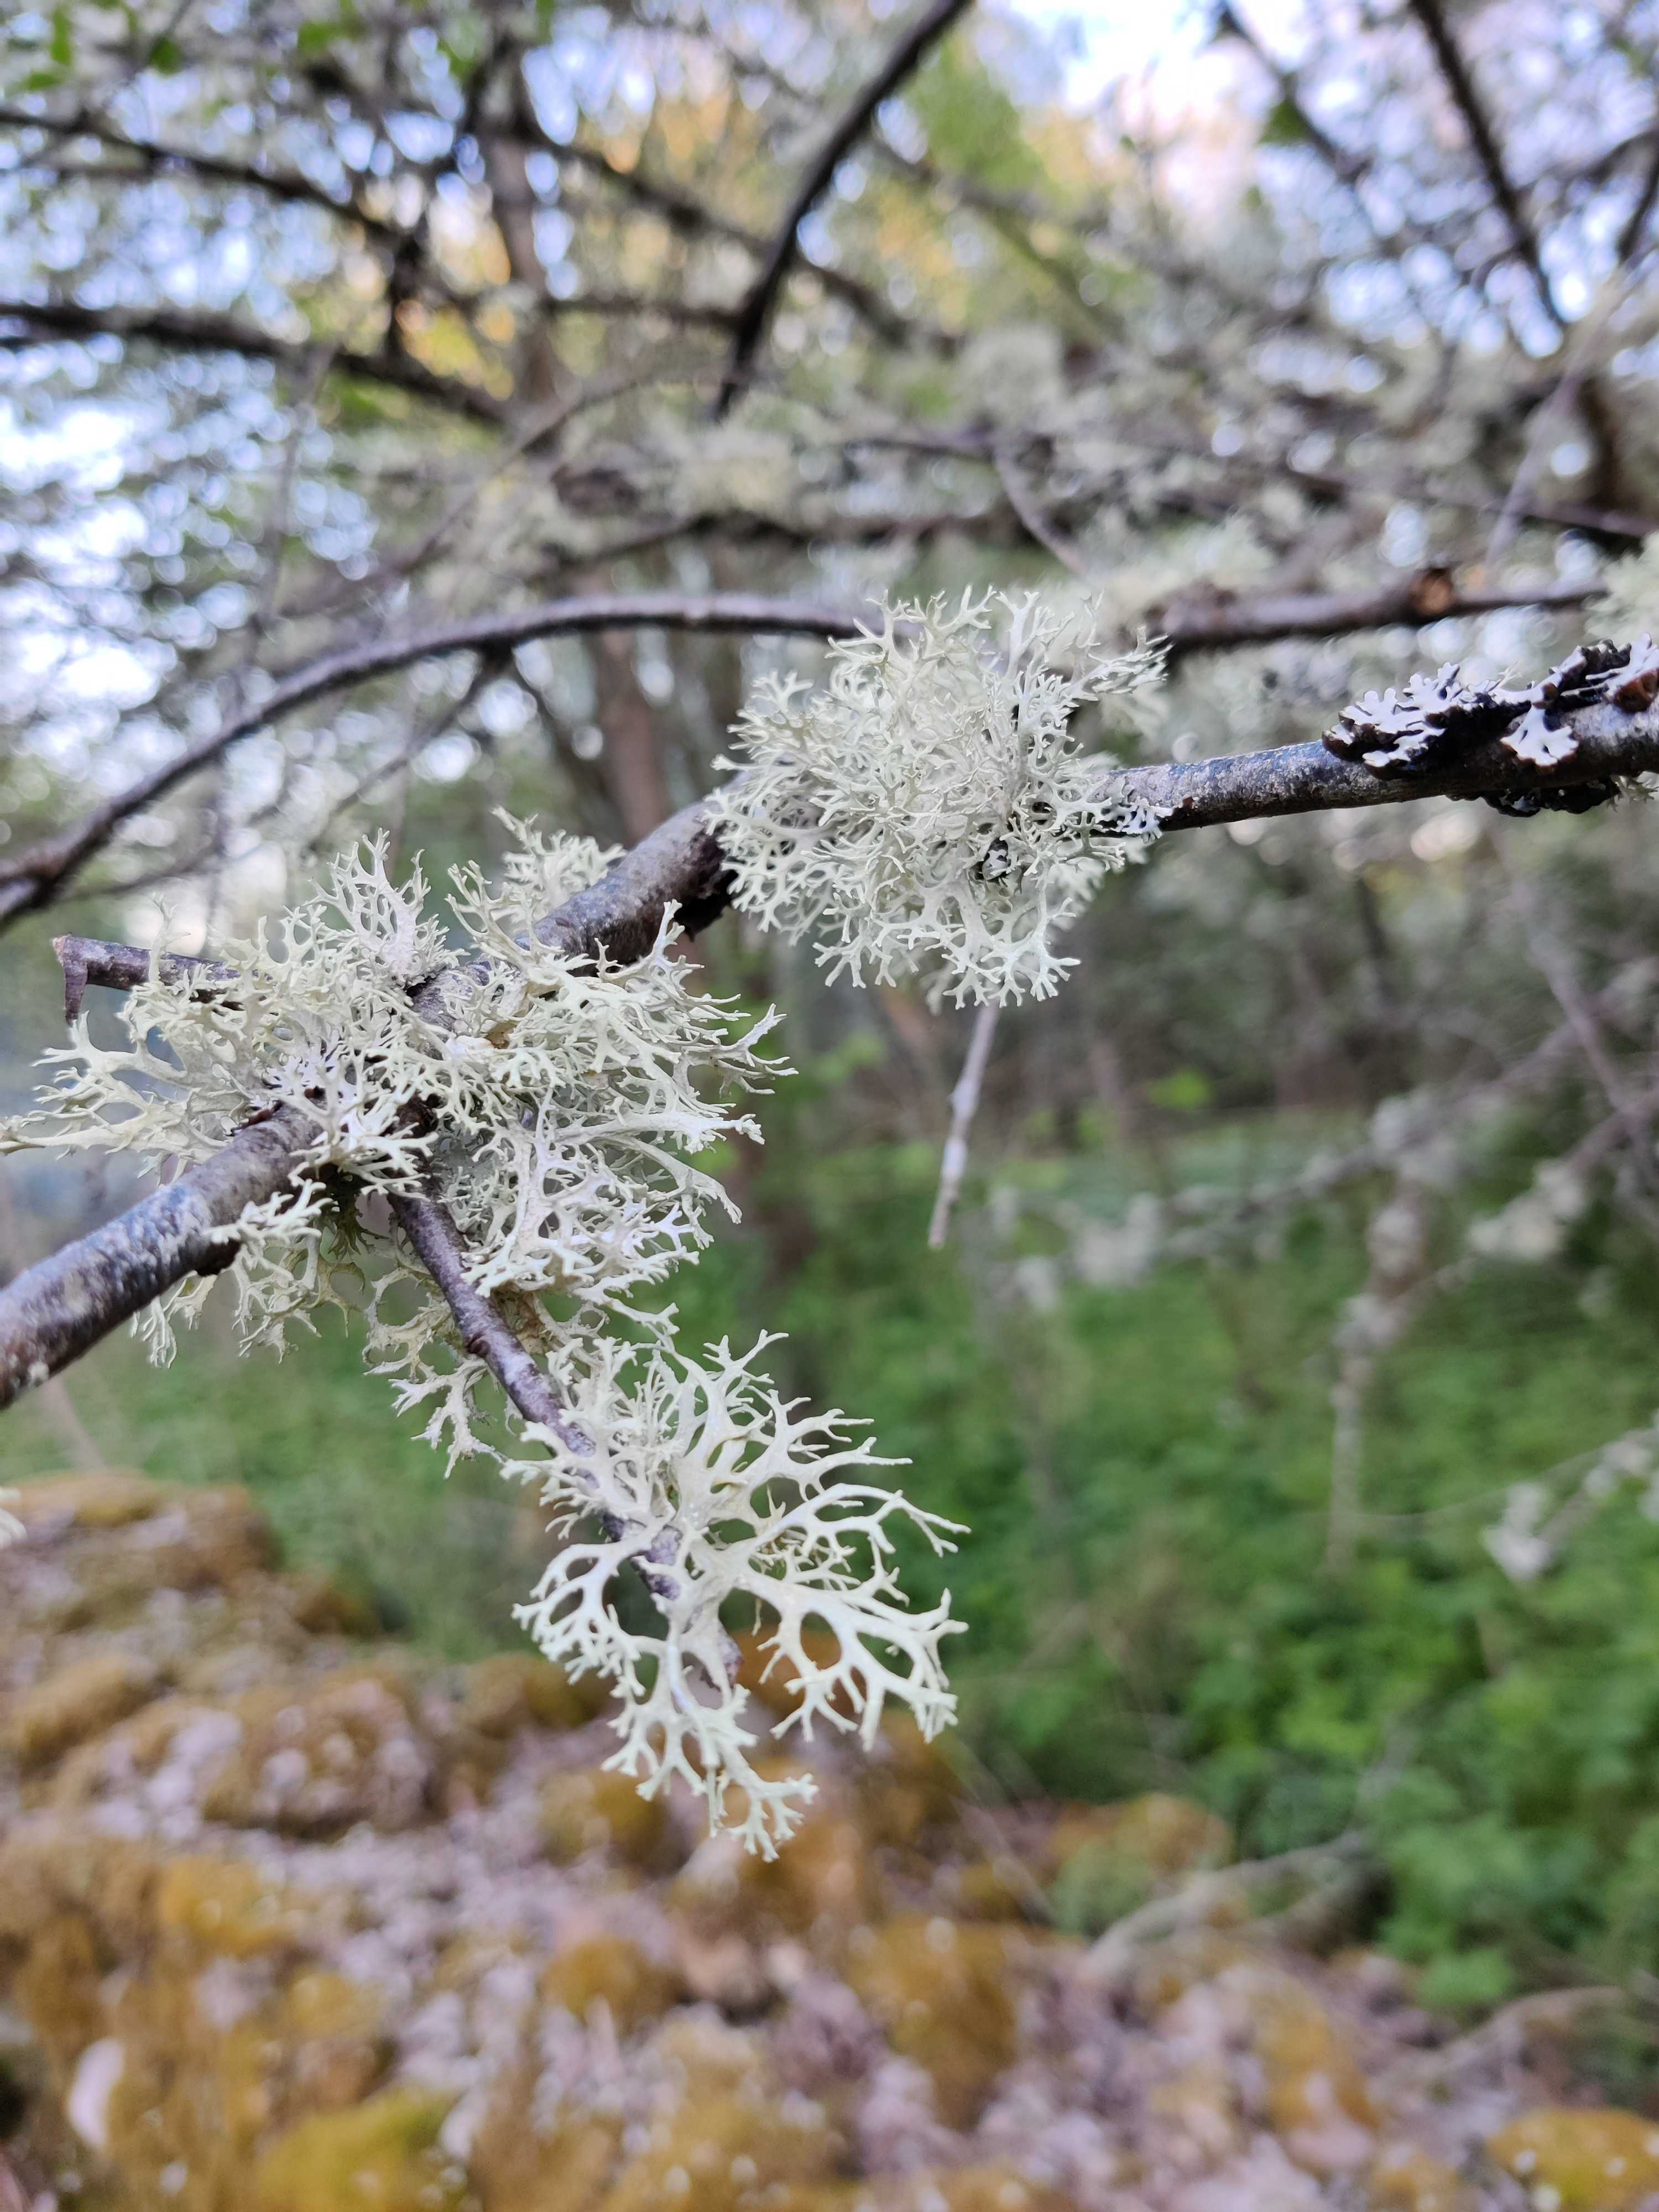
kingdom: Fungi
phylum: Ascomycota
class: Lecanoromycetes
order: Lecanorales
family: Parmeliaceae
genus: Evernia
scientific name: Evernia prunastri
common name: almindelig slåenlav
